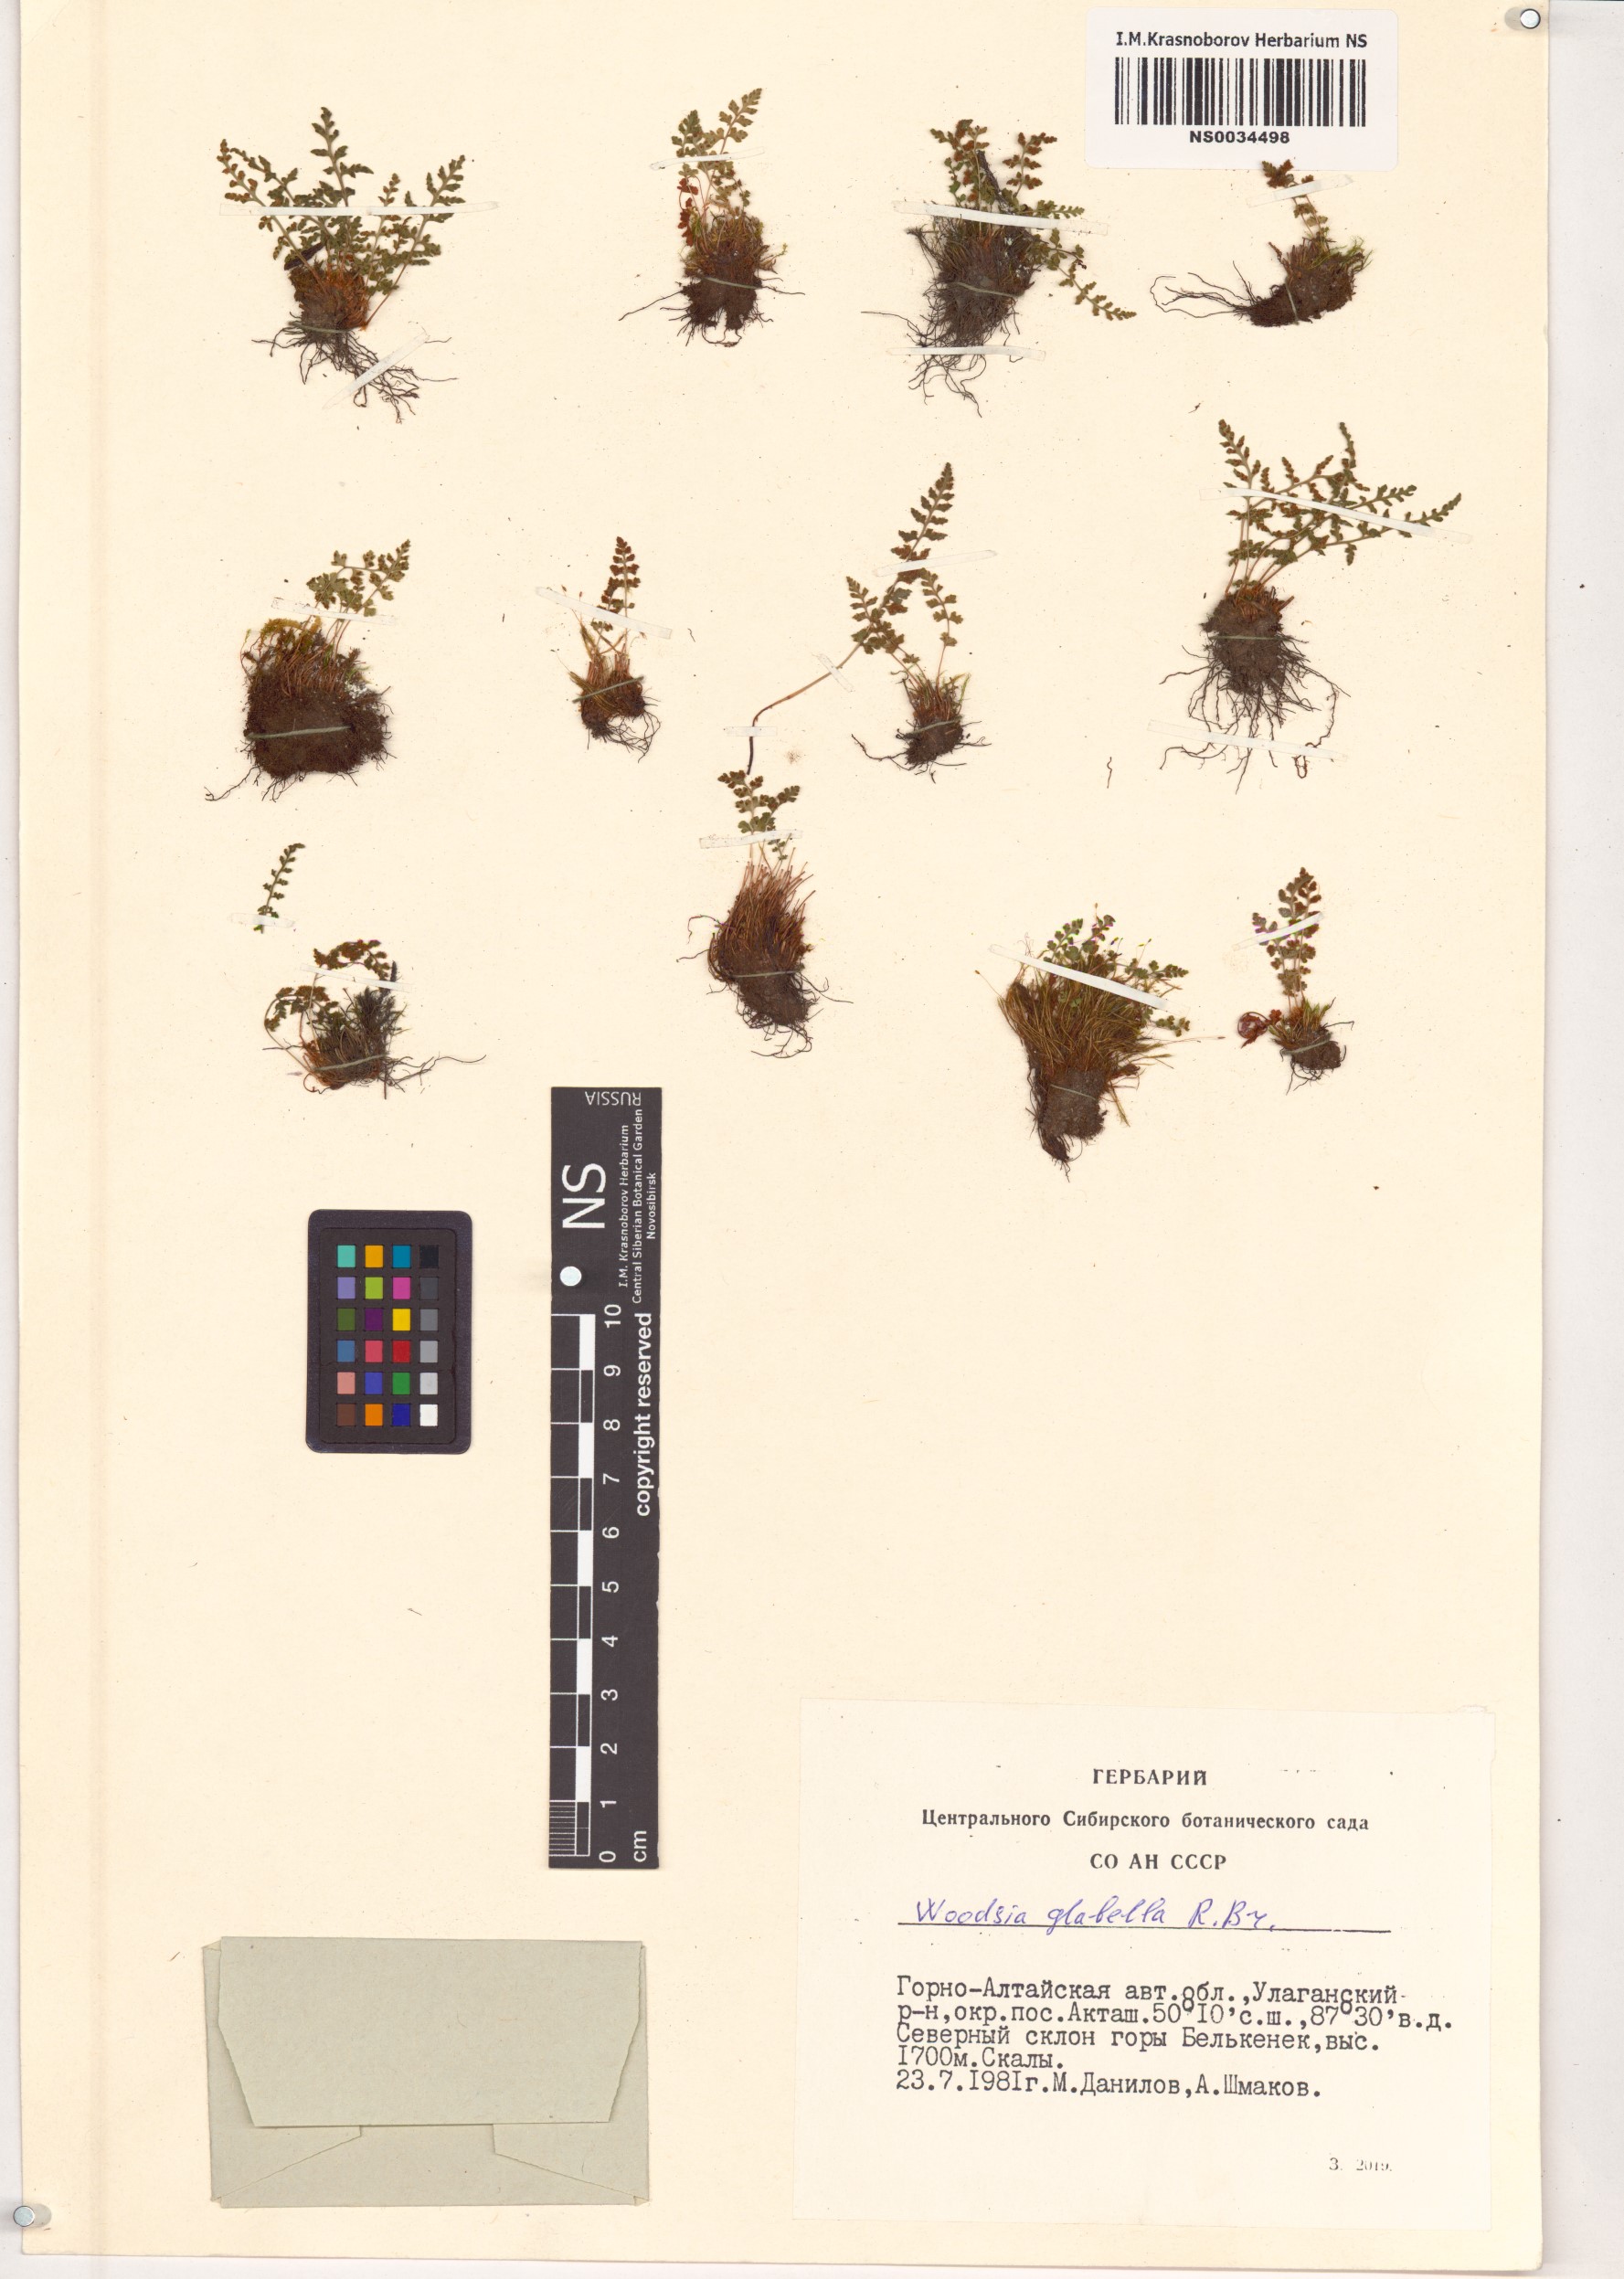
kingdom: Plantae
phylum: Tracheophyta
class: Polypodiopsida
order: Polypodiales
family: Woodsiaceae
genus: Woodsia
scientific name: Woodsia glabella
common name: Smooth woodsia
